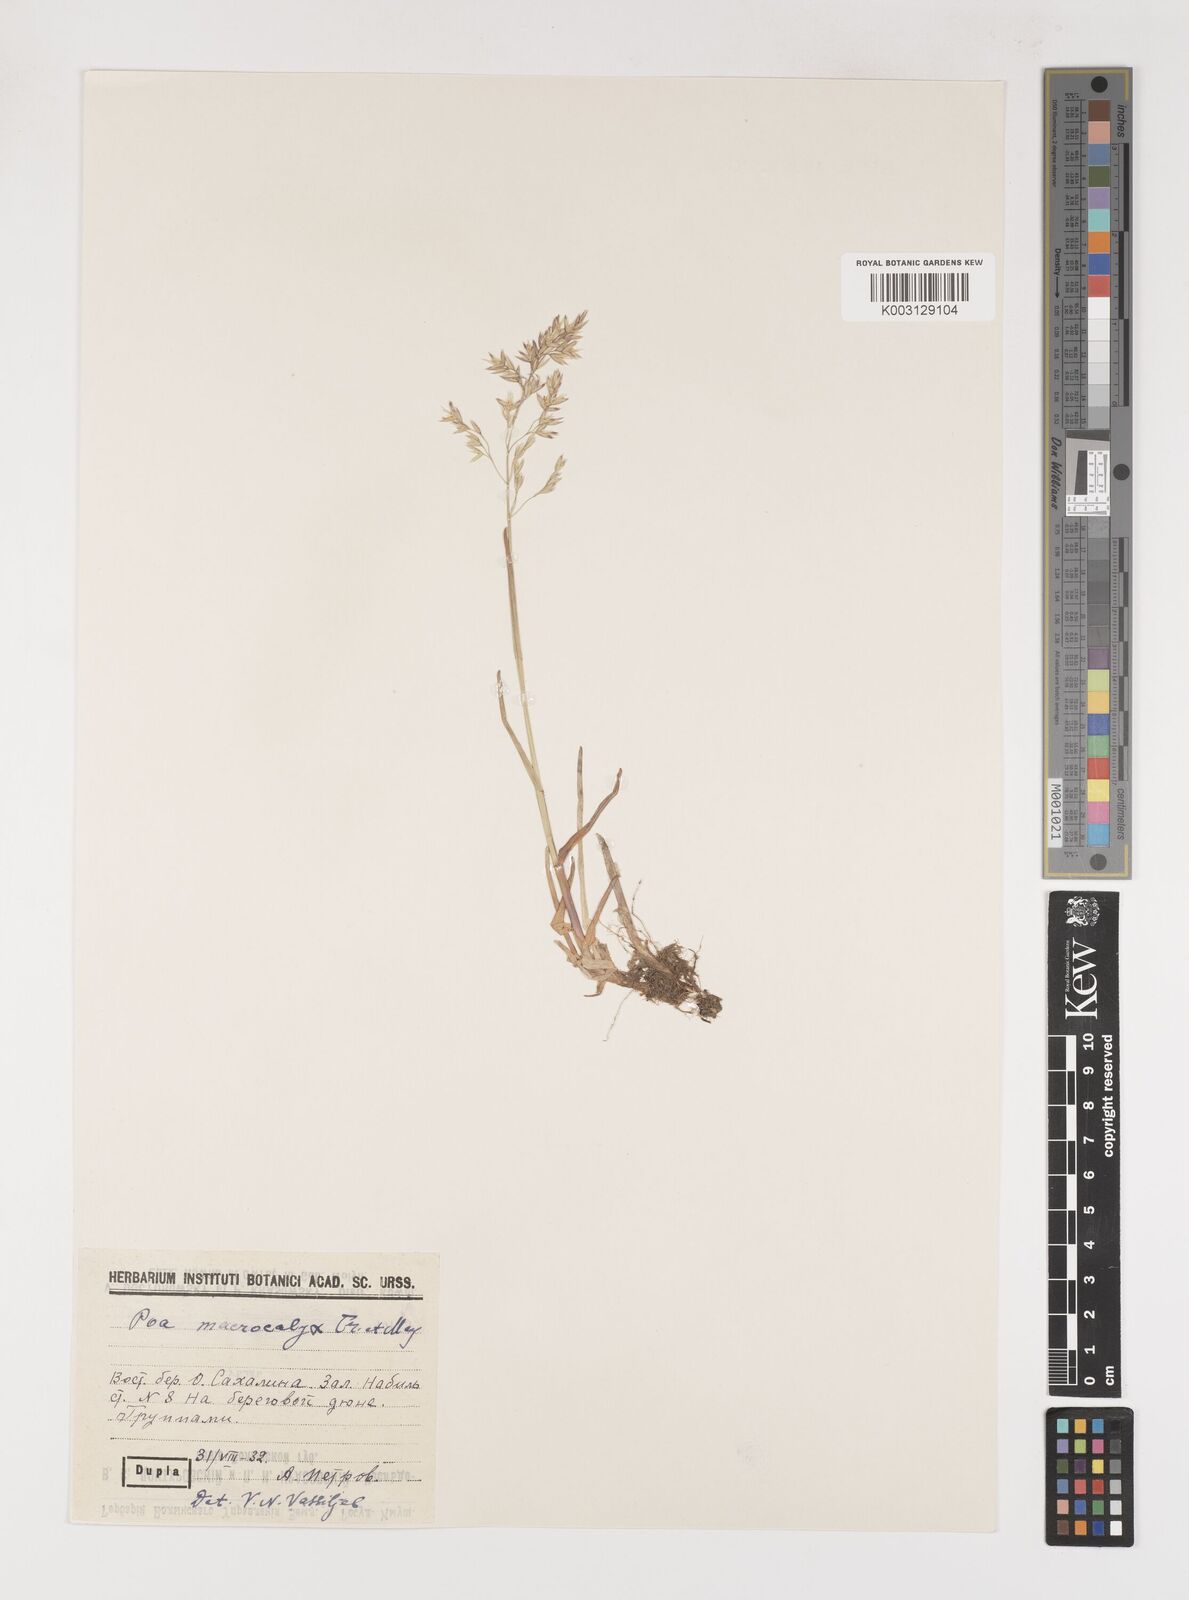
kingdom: Plantae
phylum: Tracheophyta
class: Liliopsida
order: Poales
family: Poaceae
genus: Poa
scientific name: Poa macrocalyx
